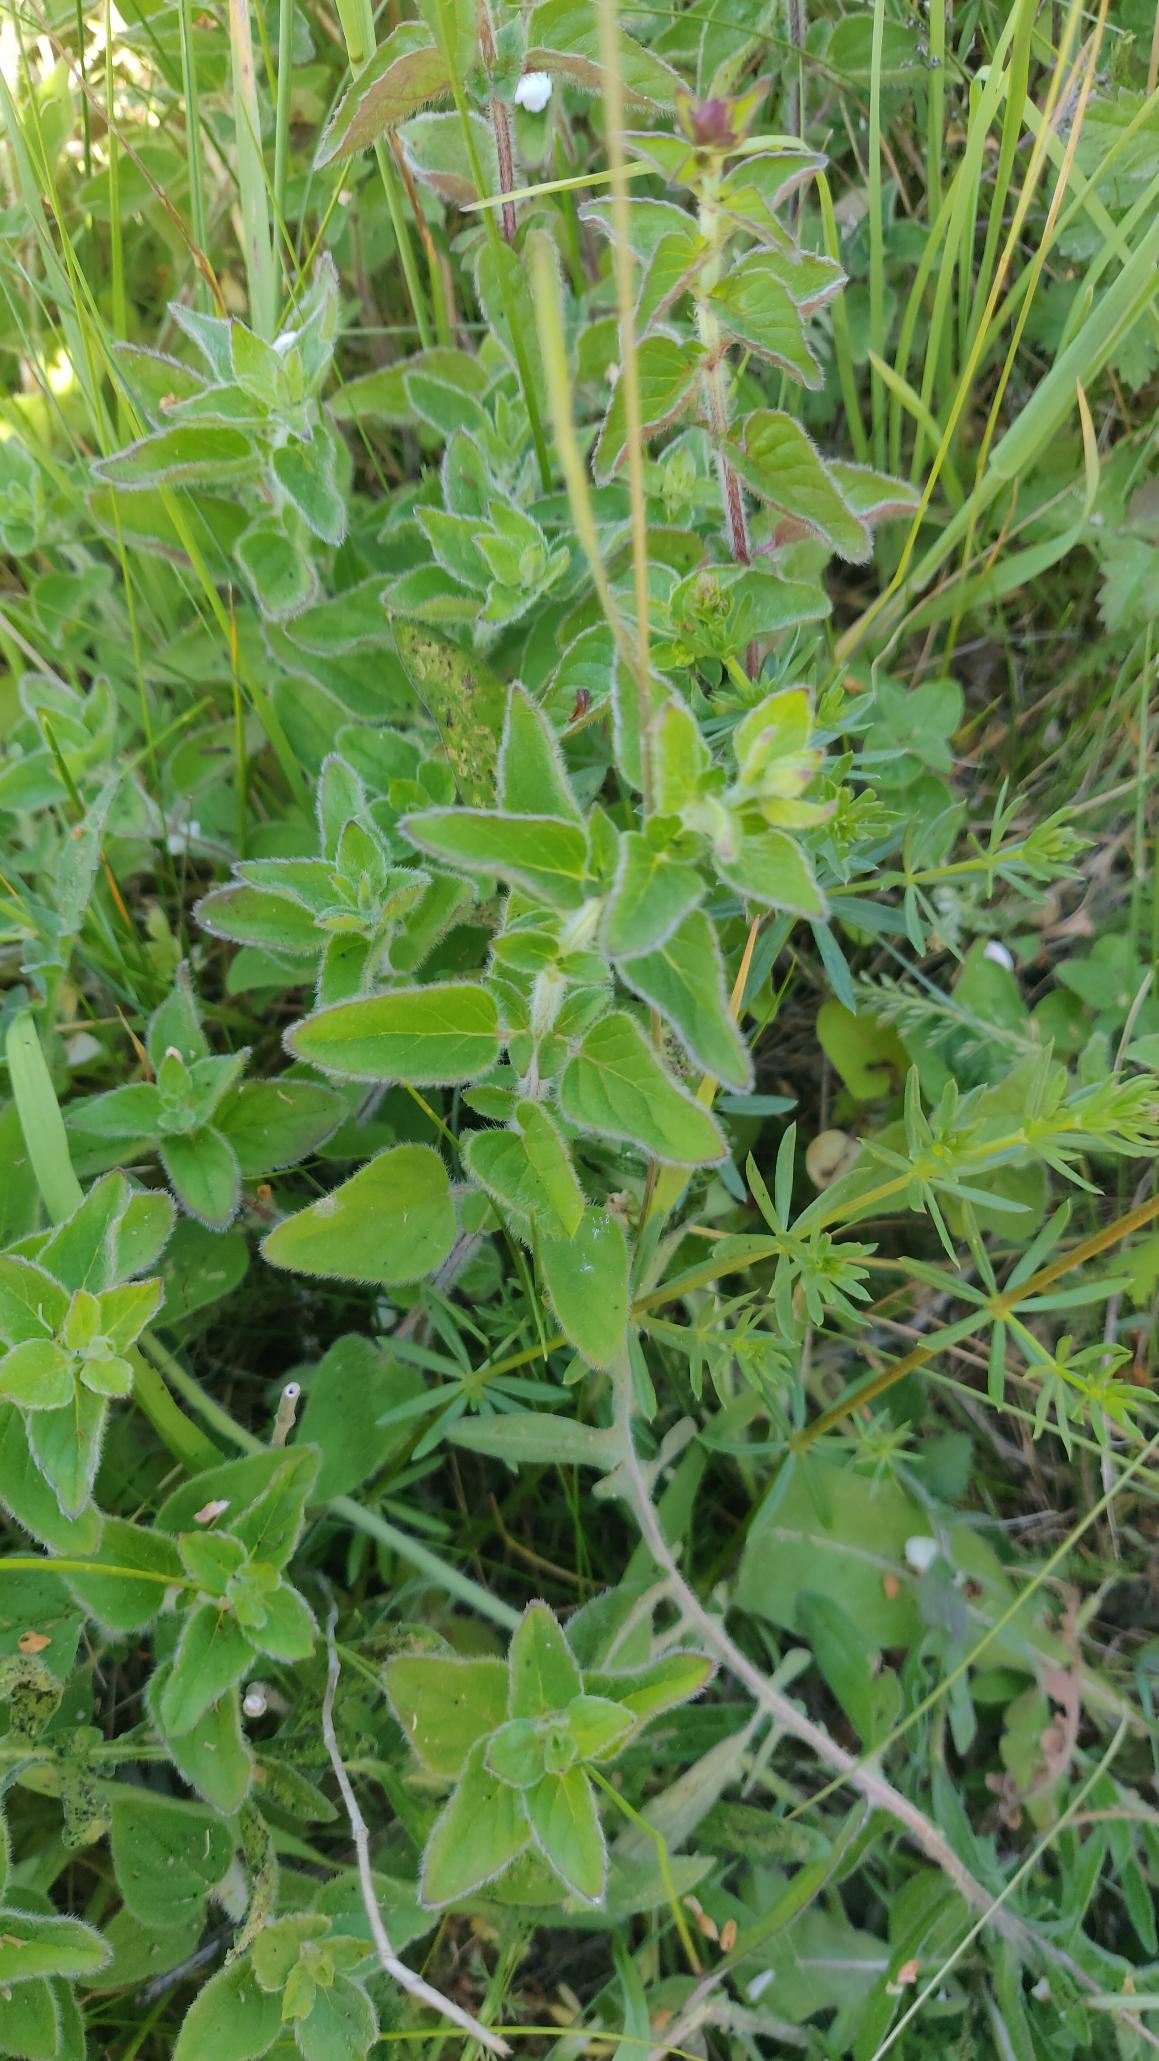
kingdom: Plantae
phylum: Tracheophyta
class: Magnoliopsida
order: Lamiales
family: Lamiaceae
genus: Origanum
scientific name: Origanum vulgare
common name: Merian
